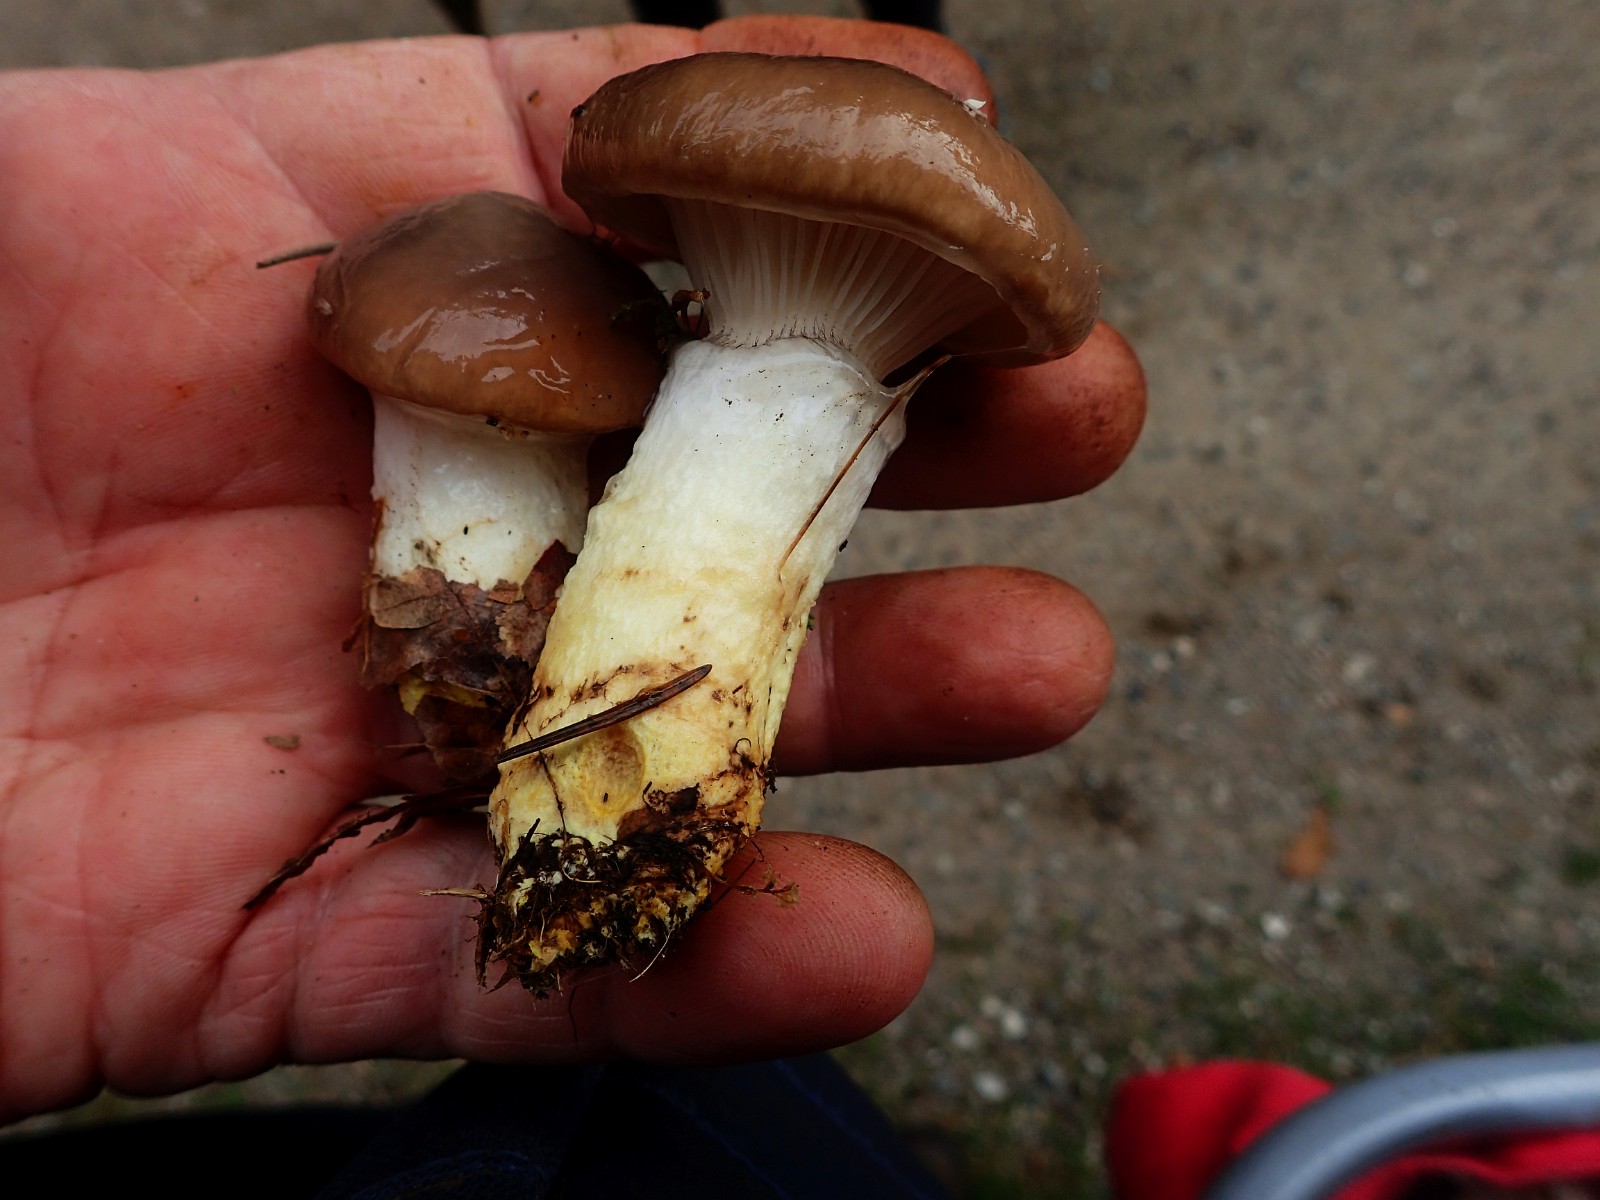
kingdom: Fungi
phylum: Basidiomycota
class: Agaricomycetes
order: Boletales
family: Gomphidiaceae
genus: Gomphidius
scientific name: Gomphidius glutinosus
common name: grå slimslør
